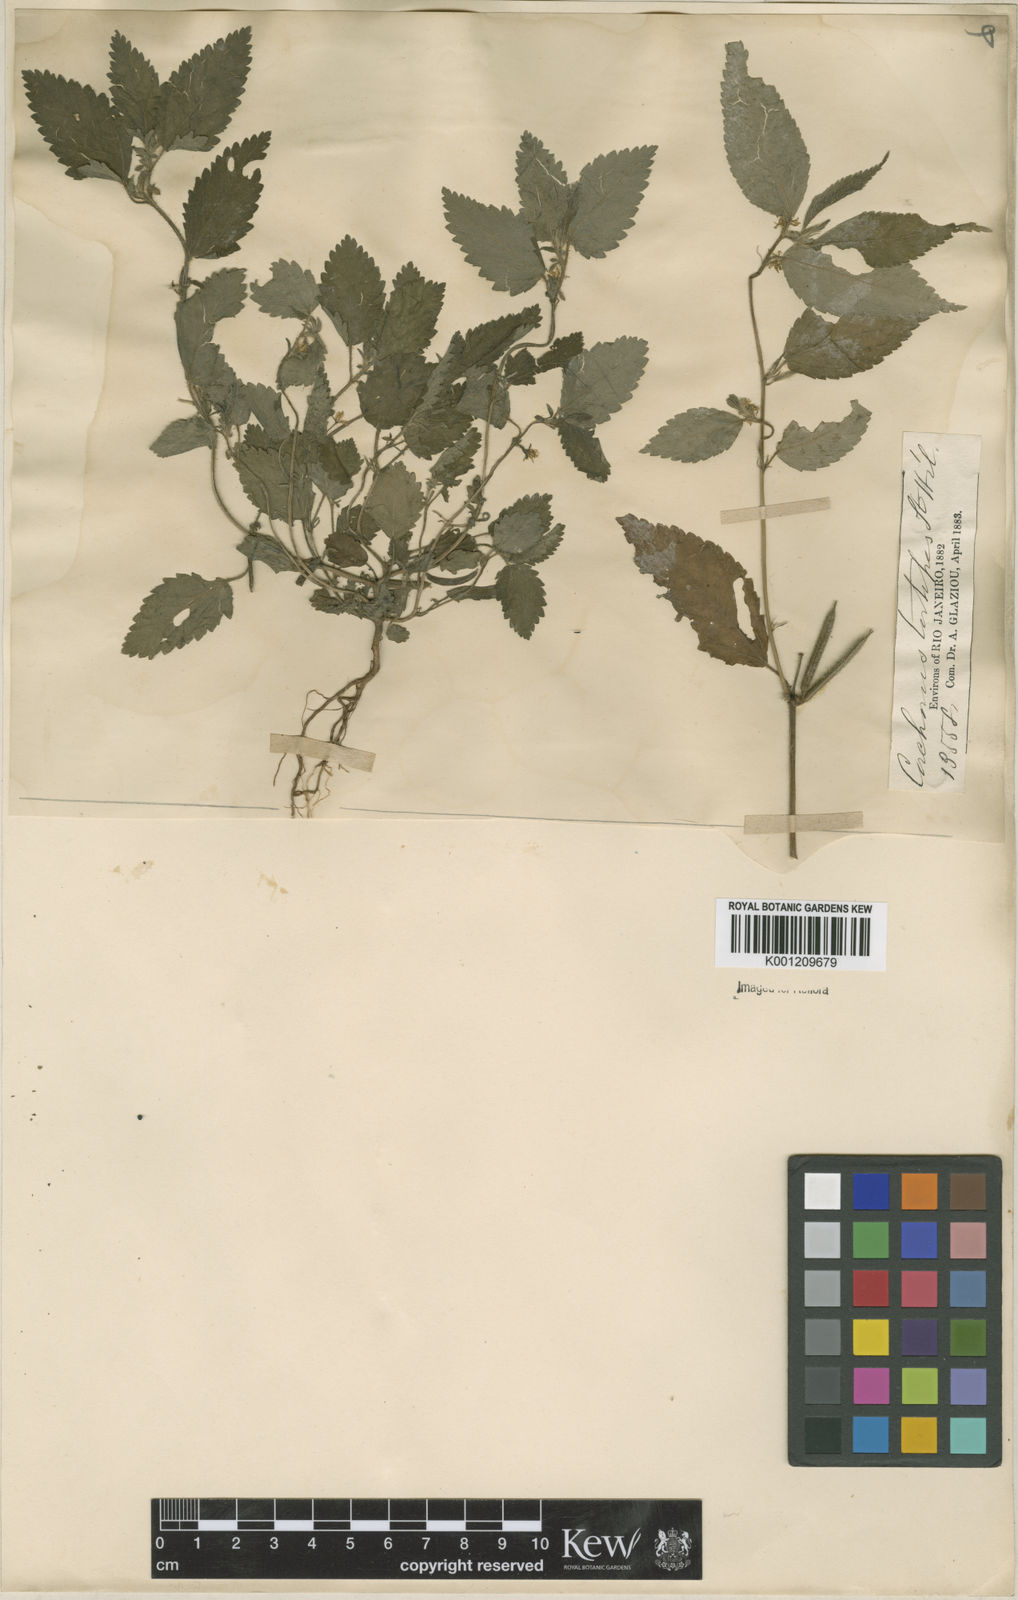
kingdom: Plantae
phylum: Tracheophyta
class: Magnoliopsida
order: Malvales
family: Malvaceae
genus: Corchorus
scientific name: Corchorus hirtus
